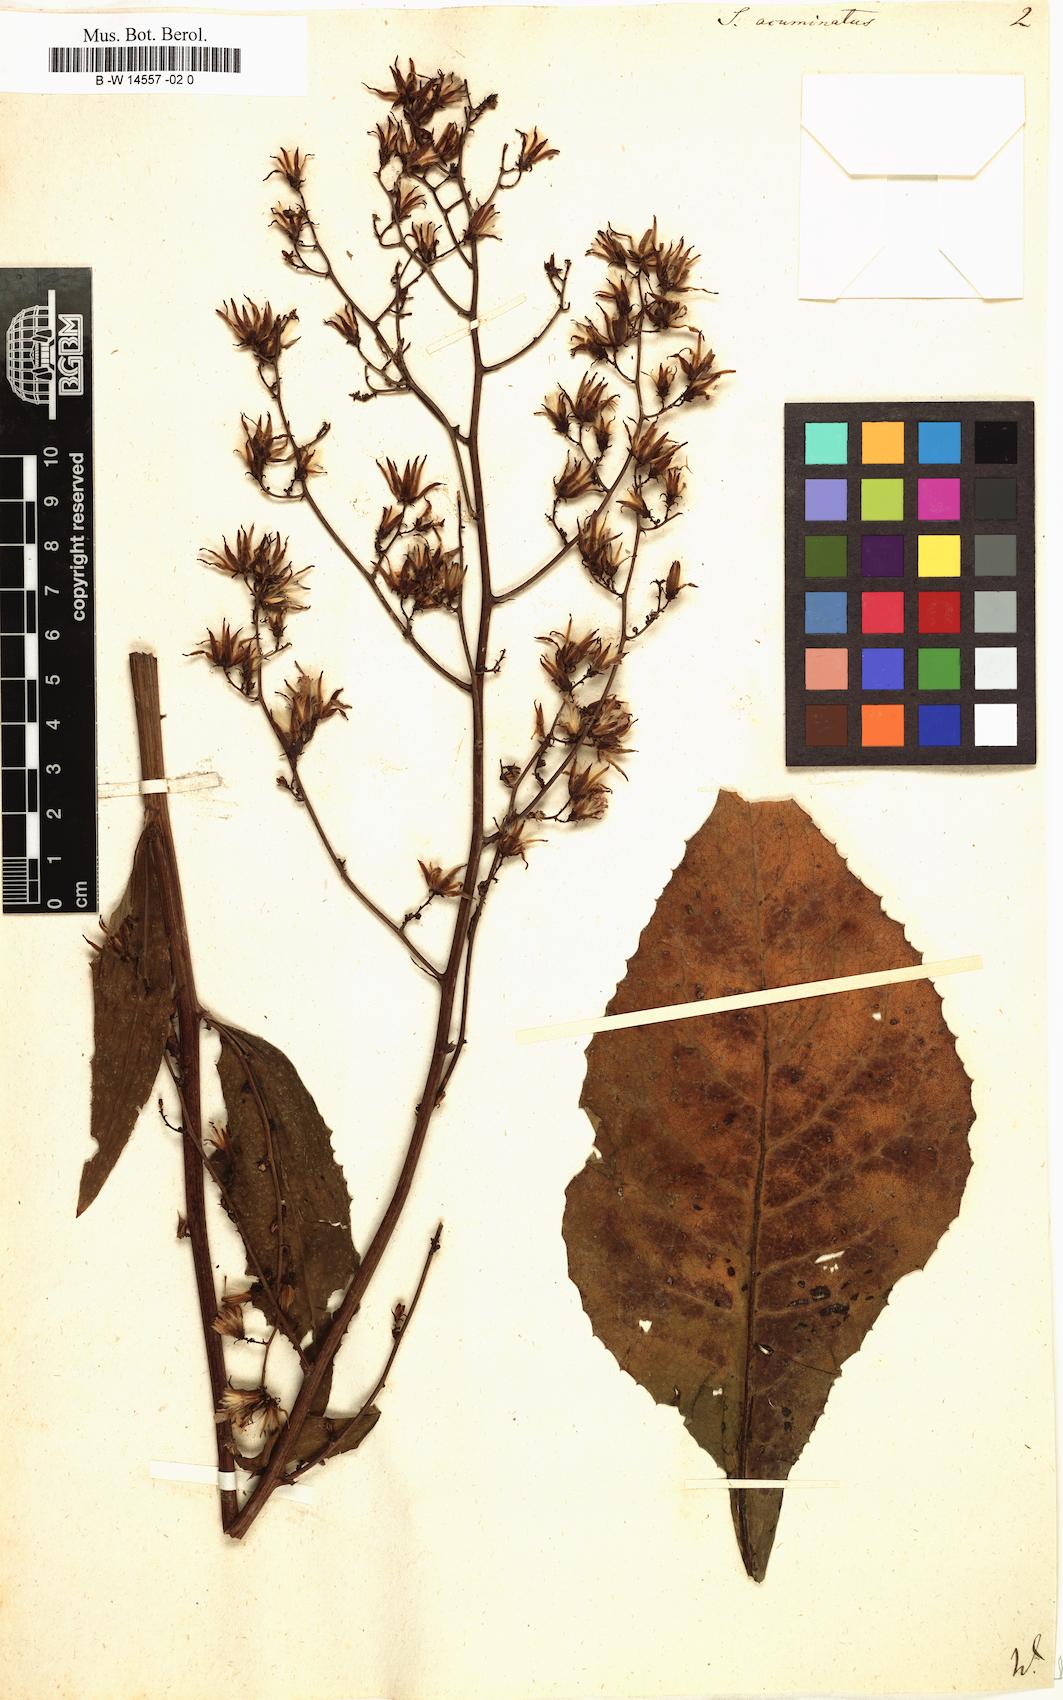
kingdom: Plantae
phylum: Tracheophyta
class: Magnoliopsida
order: Asterales
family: Asteraceae
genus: Sonchus
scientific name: Sonchus acuminatus
